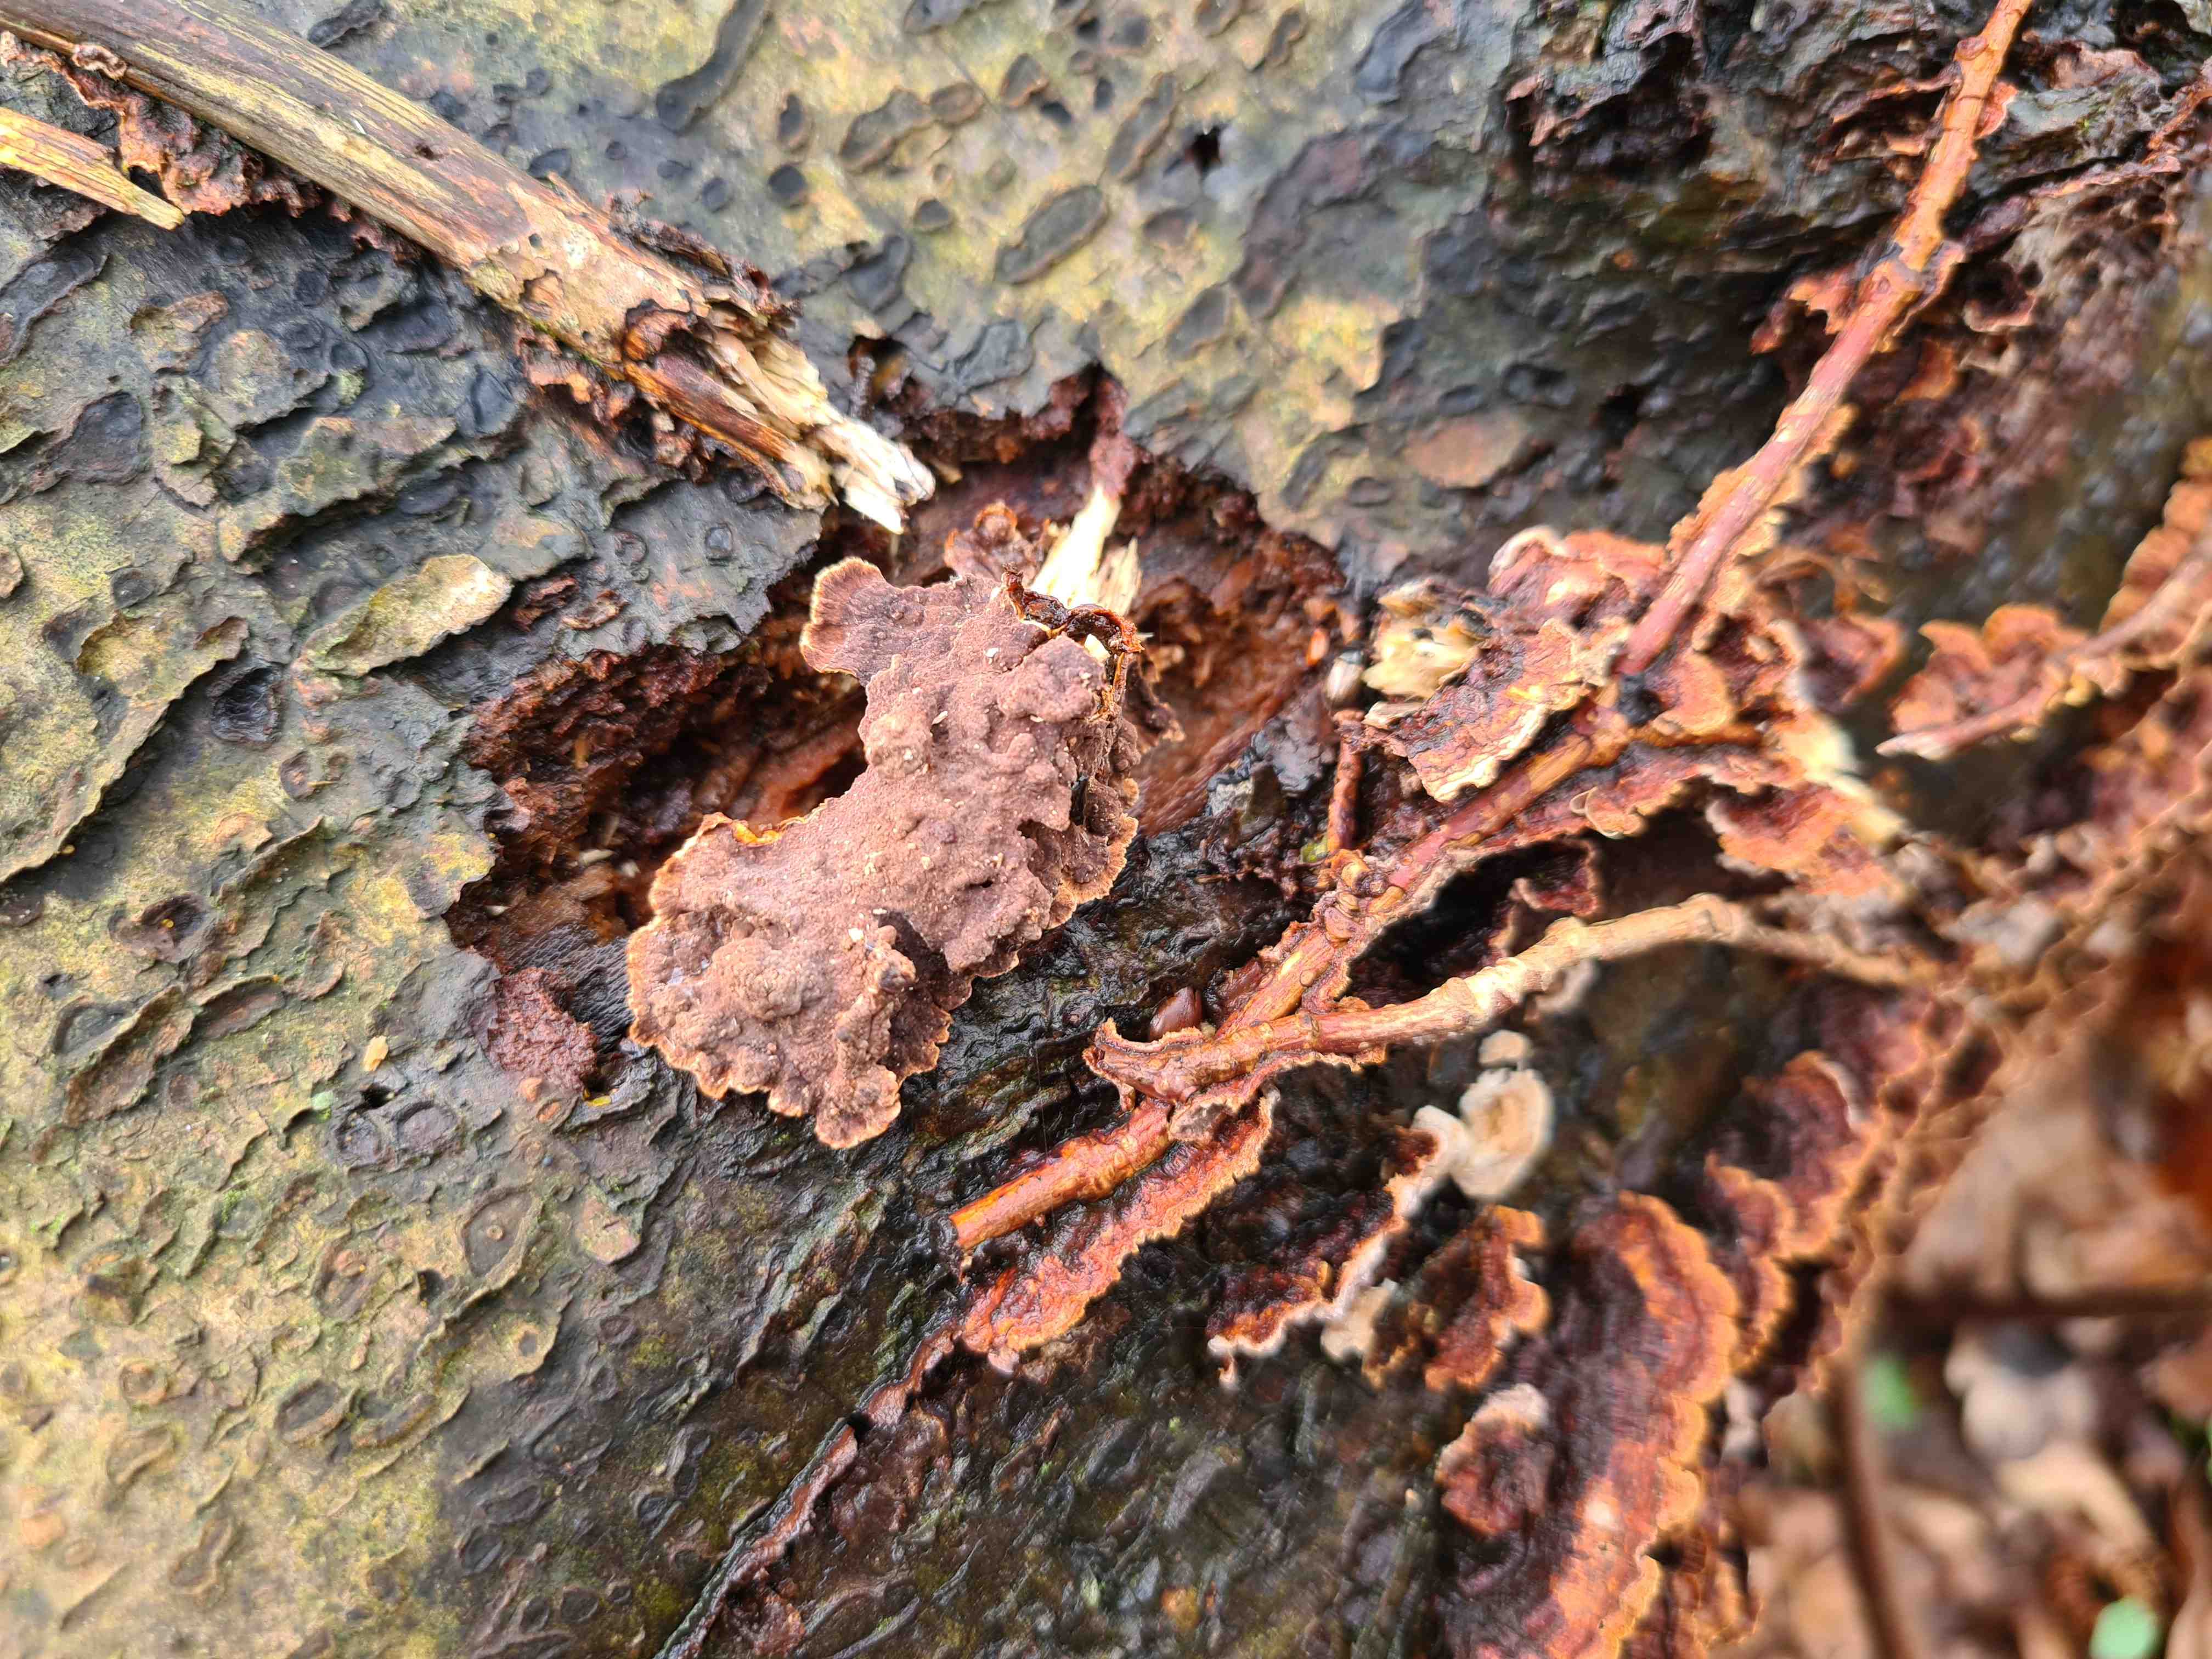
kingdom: Fungi
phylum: Basidiomycota
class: Agaricomycetes
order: Hymenochaetales
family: Hymenochaetaceae
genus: Hydnoporia
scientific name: Hydnoporia tabacina
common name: tobaksbrun ruslædersvamp
